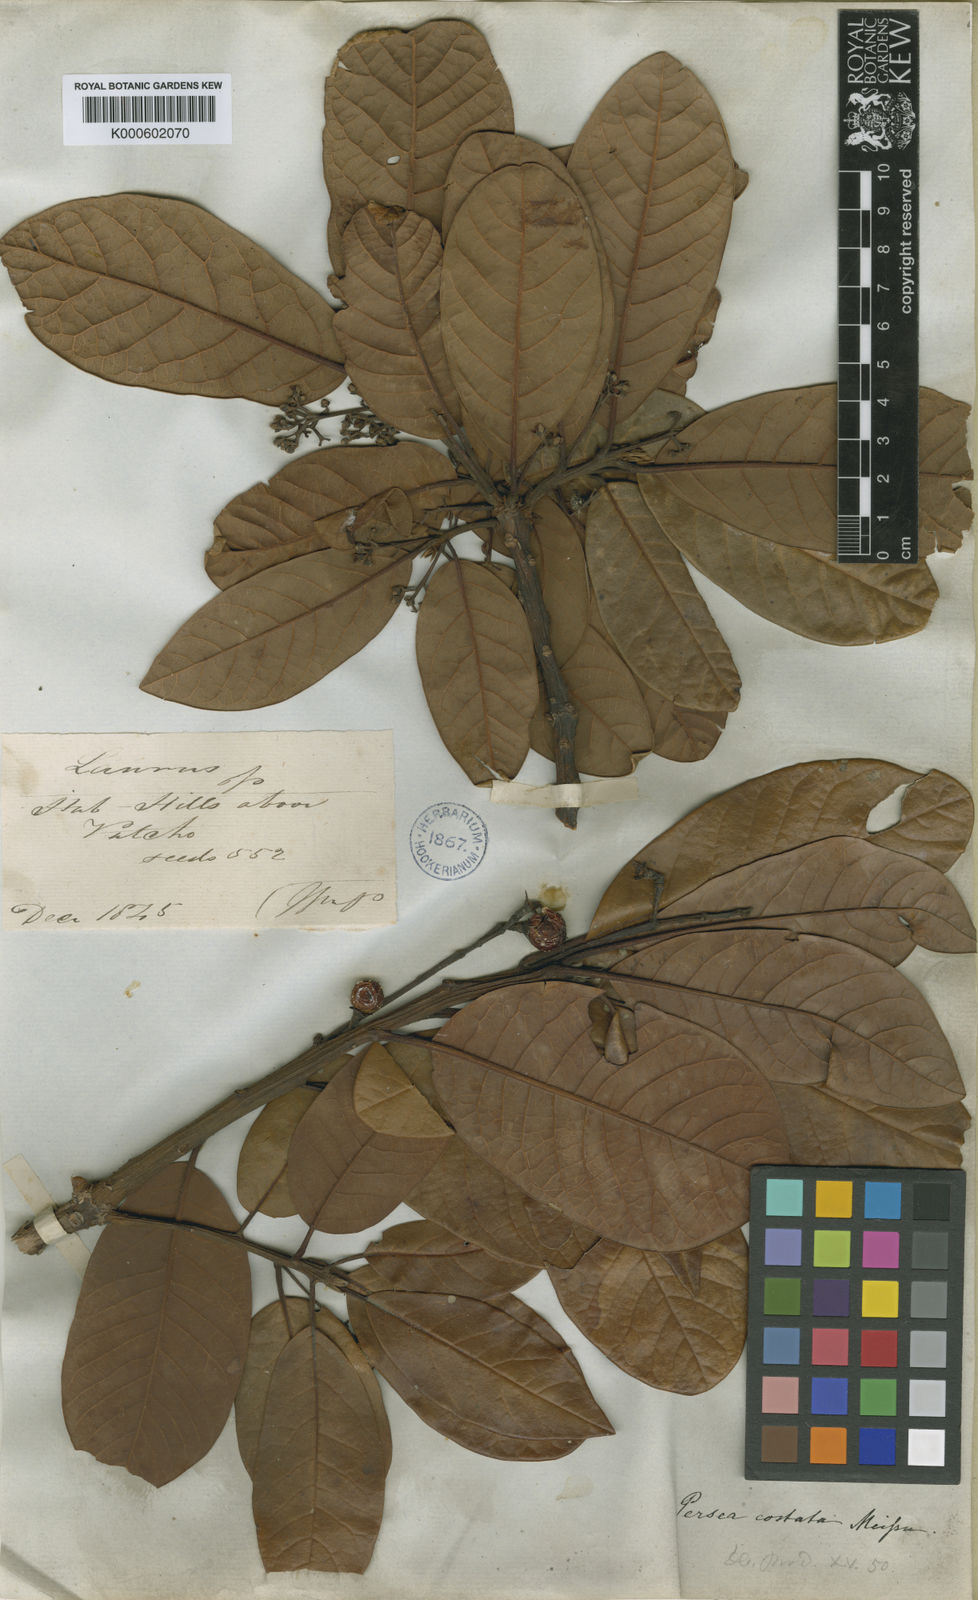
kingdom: Plantae
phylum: Tracheophyta
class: Magnoliopsida
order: Laurales
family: Lauraceae
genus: Persea
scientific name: Persea costata
